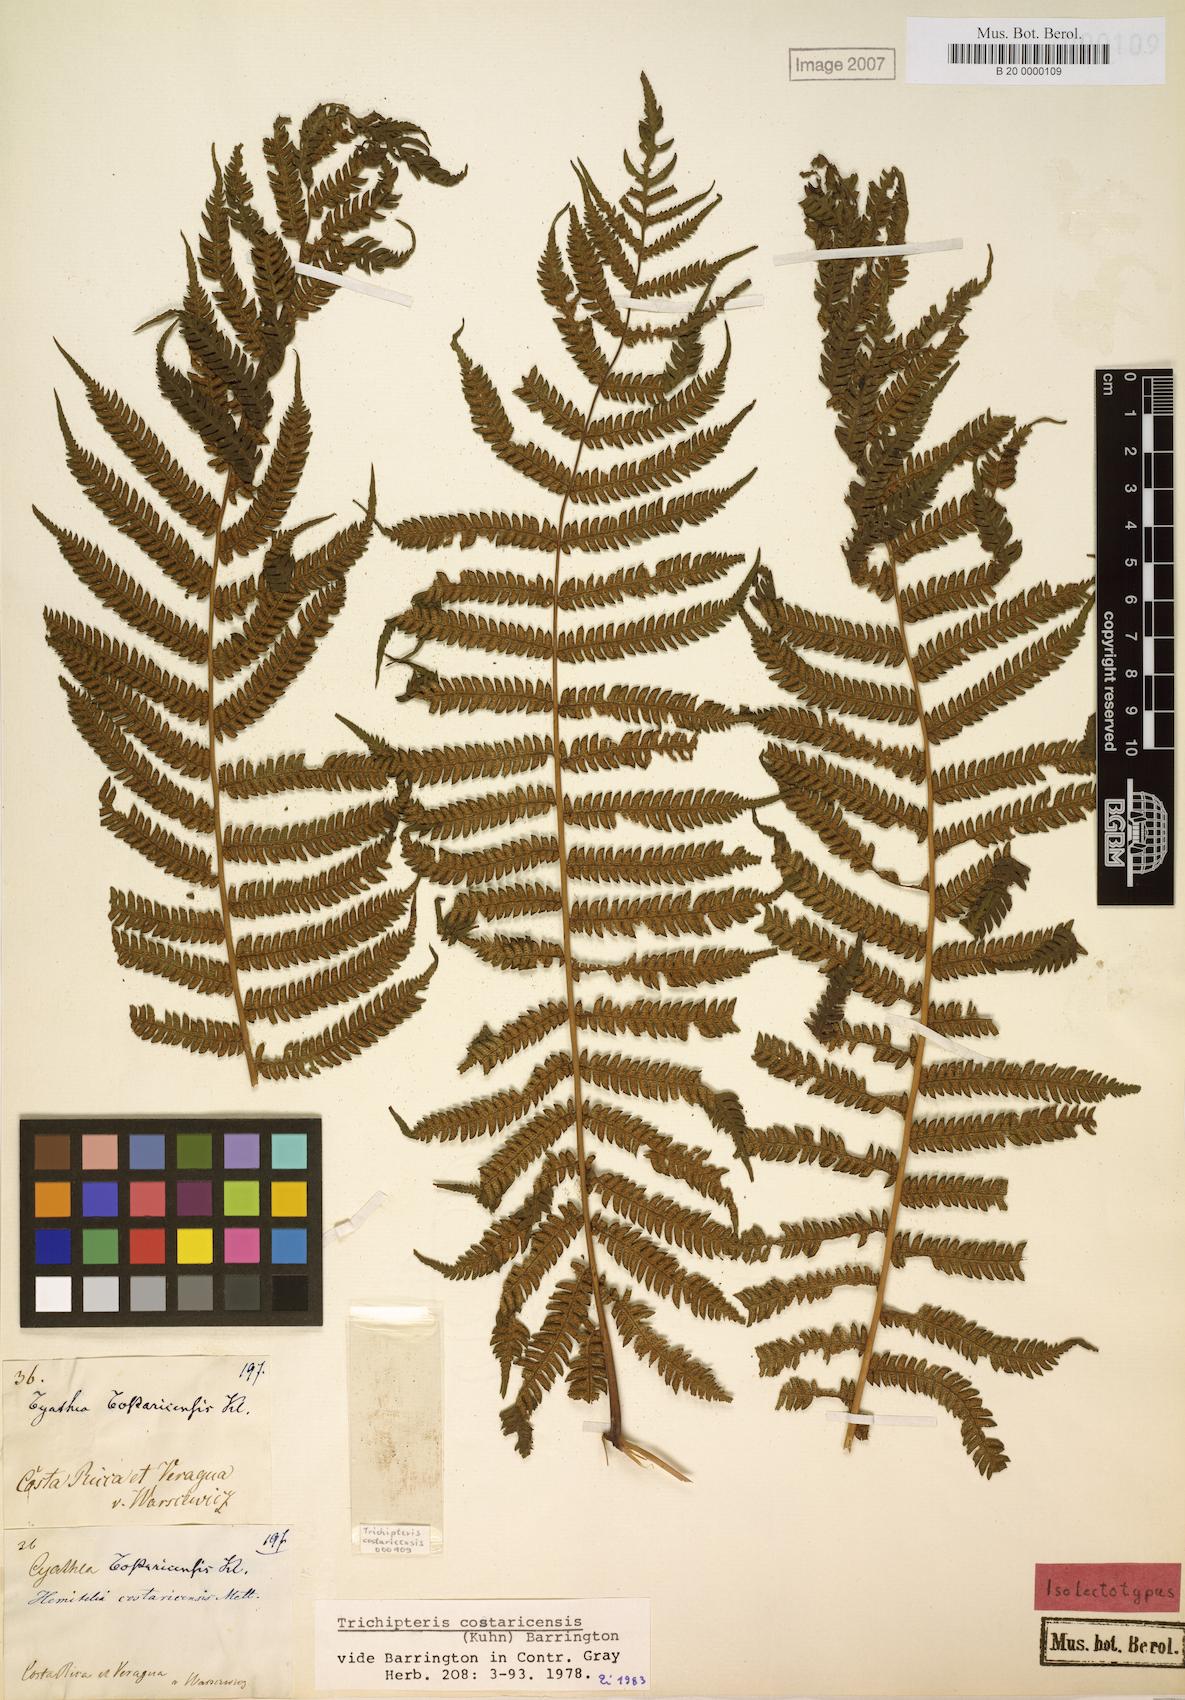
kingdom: Plantae
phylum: Tracheophyta
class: Polypodiopsida
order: Cyatheales
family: Cyatheaceae
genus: Cyathea
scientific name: Cyathea costaricensis
